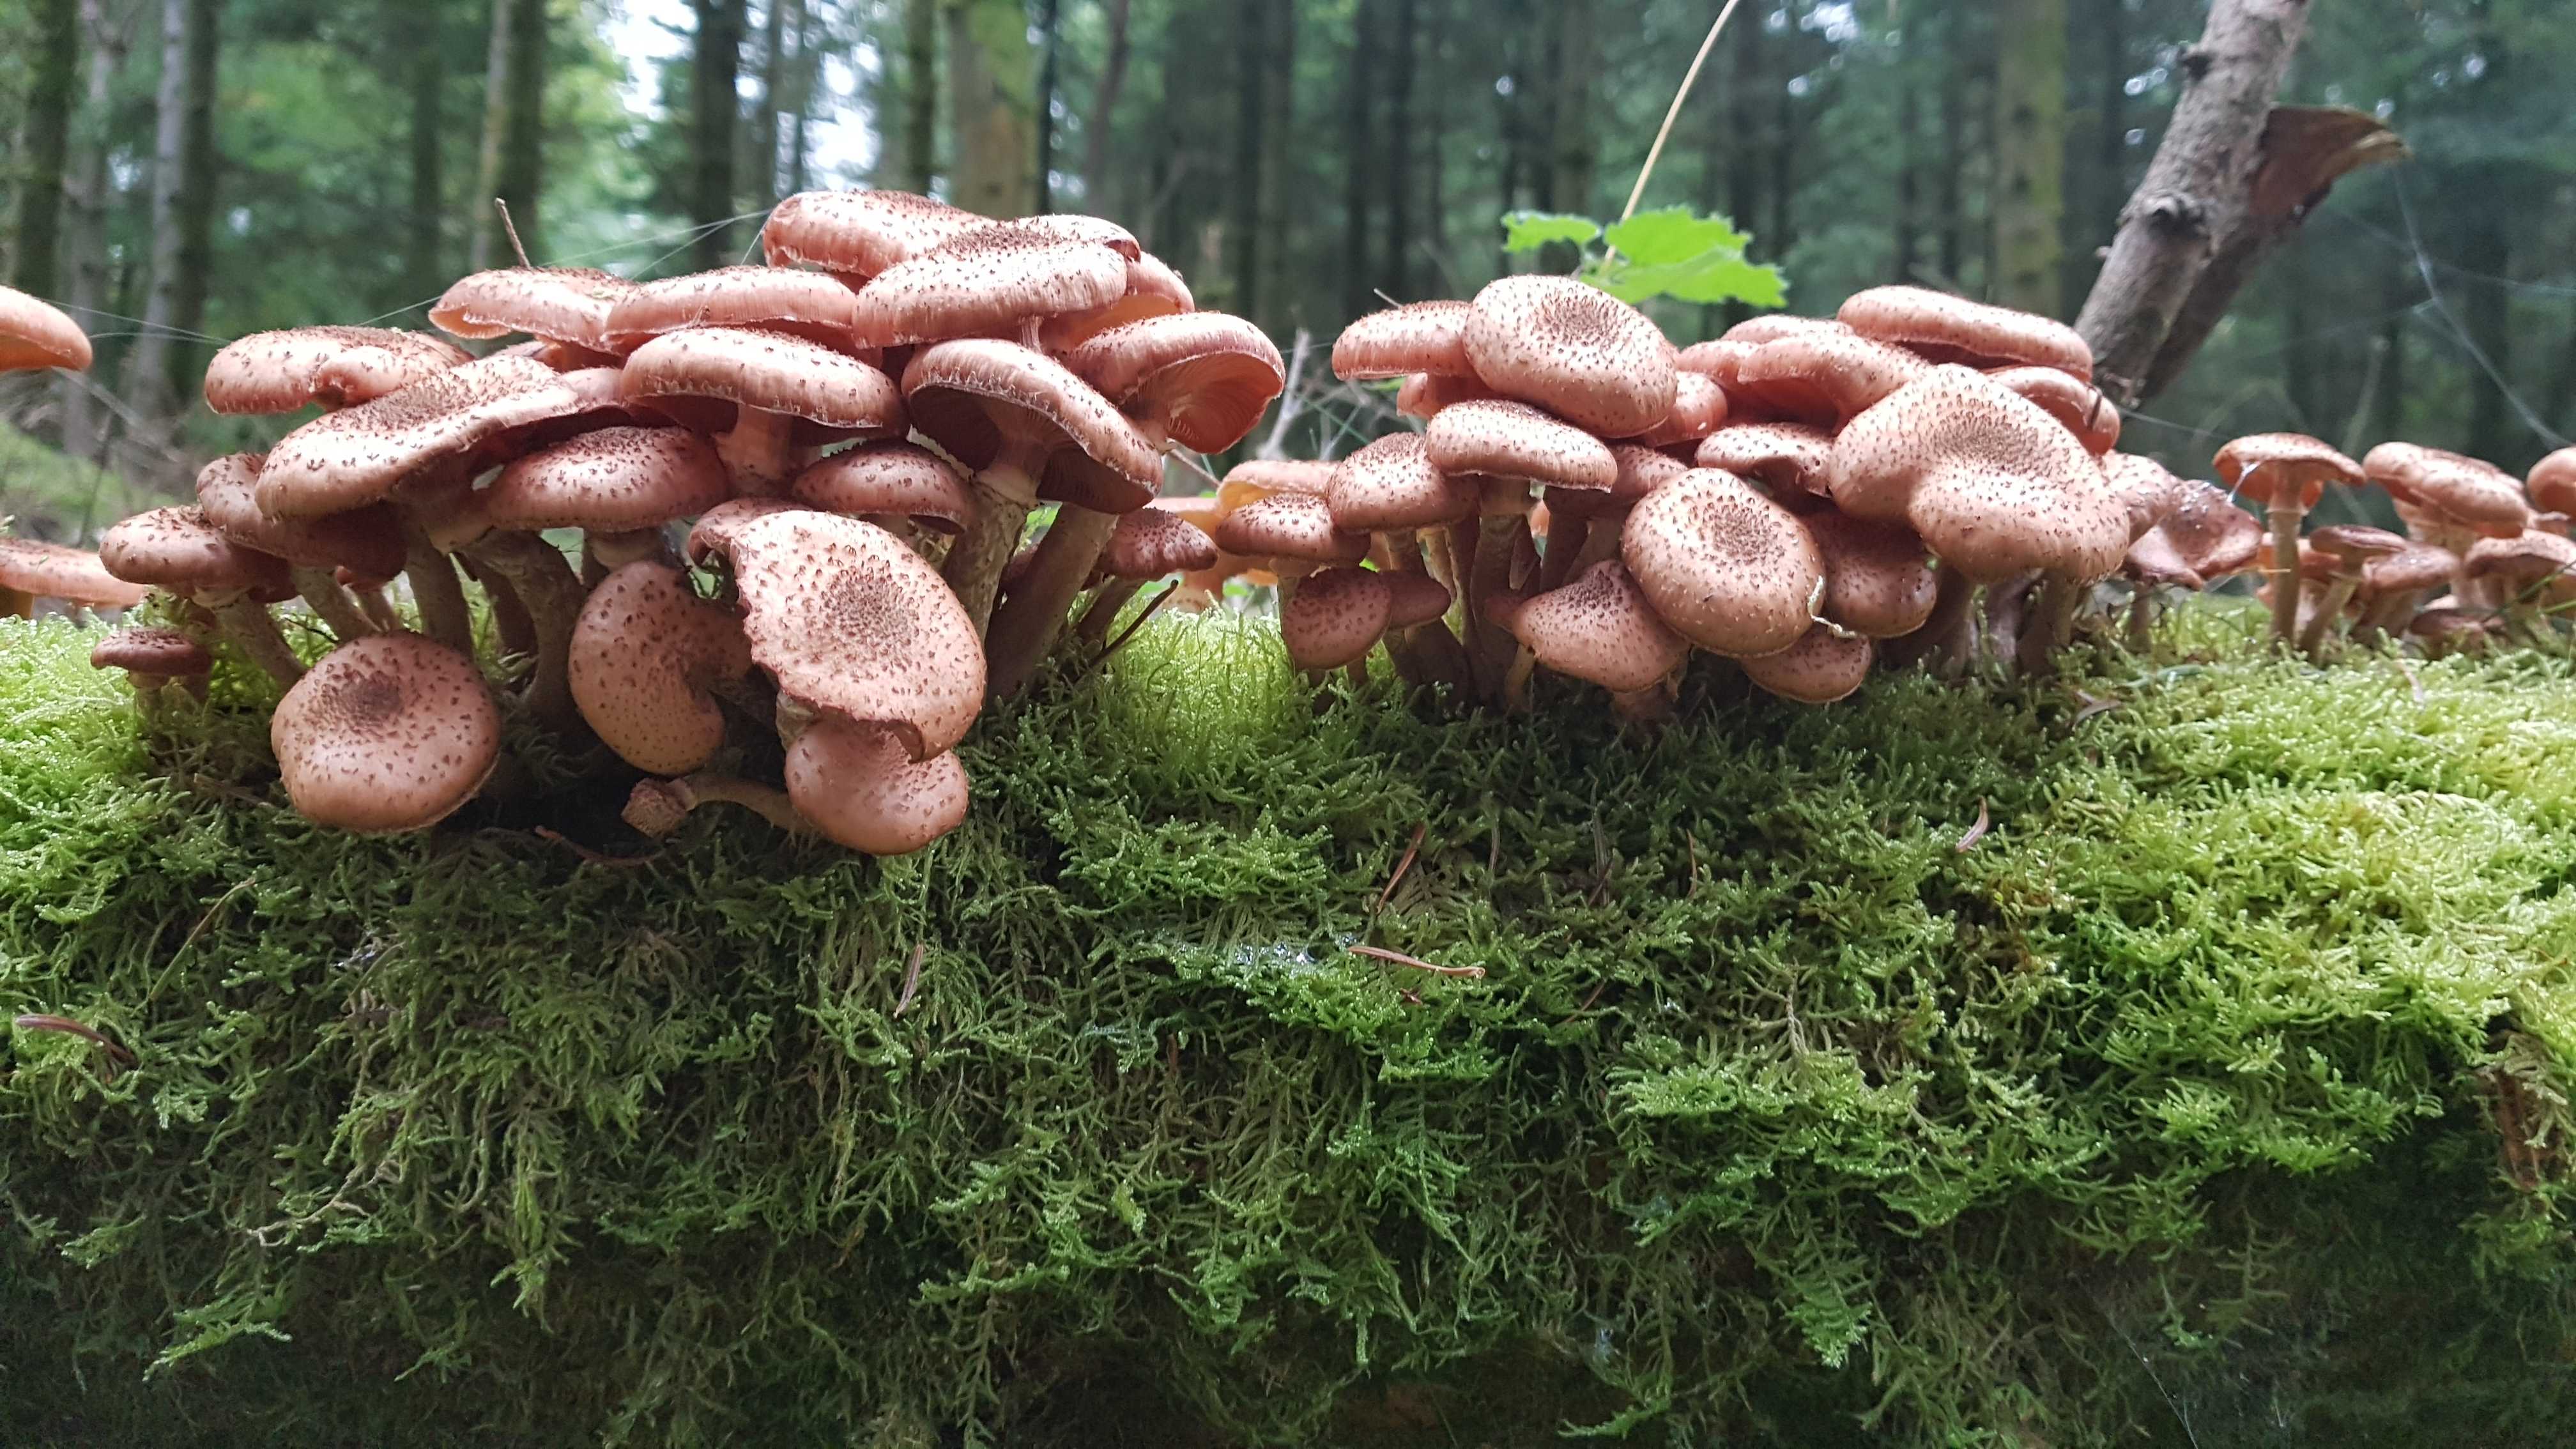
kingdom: Fungi
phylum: Basidiomycota
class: Agaricomycetes
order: Agaricales
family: Physalacriaceae
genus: Armillaria
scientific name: Armillaria ostoyae
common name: mørk honningsvamp
